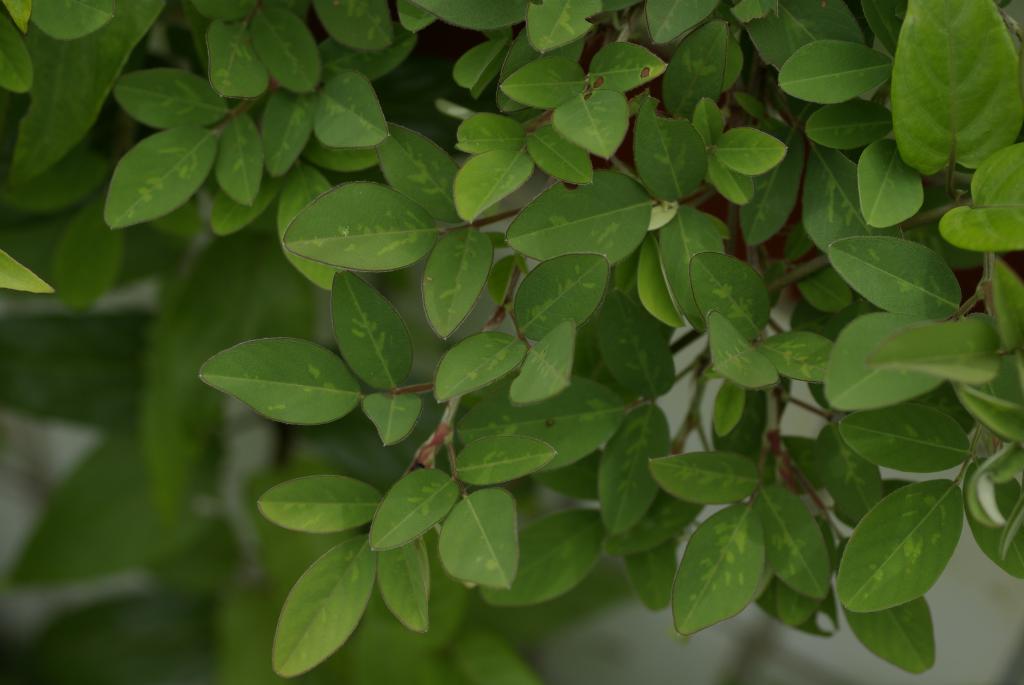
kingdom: Plantae
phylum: Tracheophyta
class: Magnoliopsida
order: Fabales
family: Fabaceae
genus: Grona
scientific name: Grona heterocarpos
